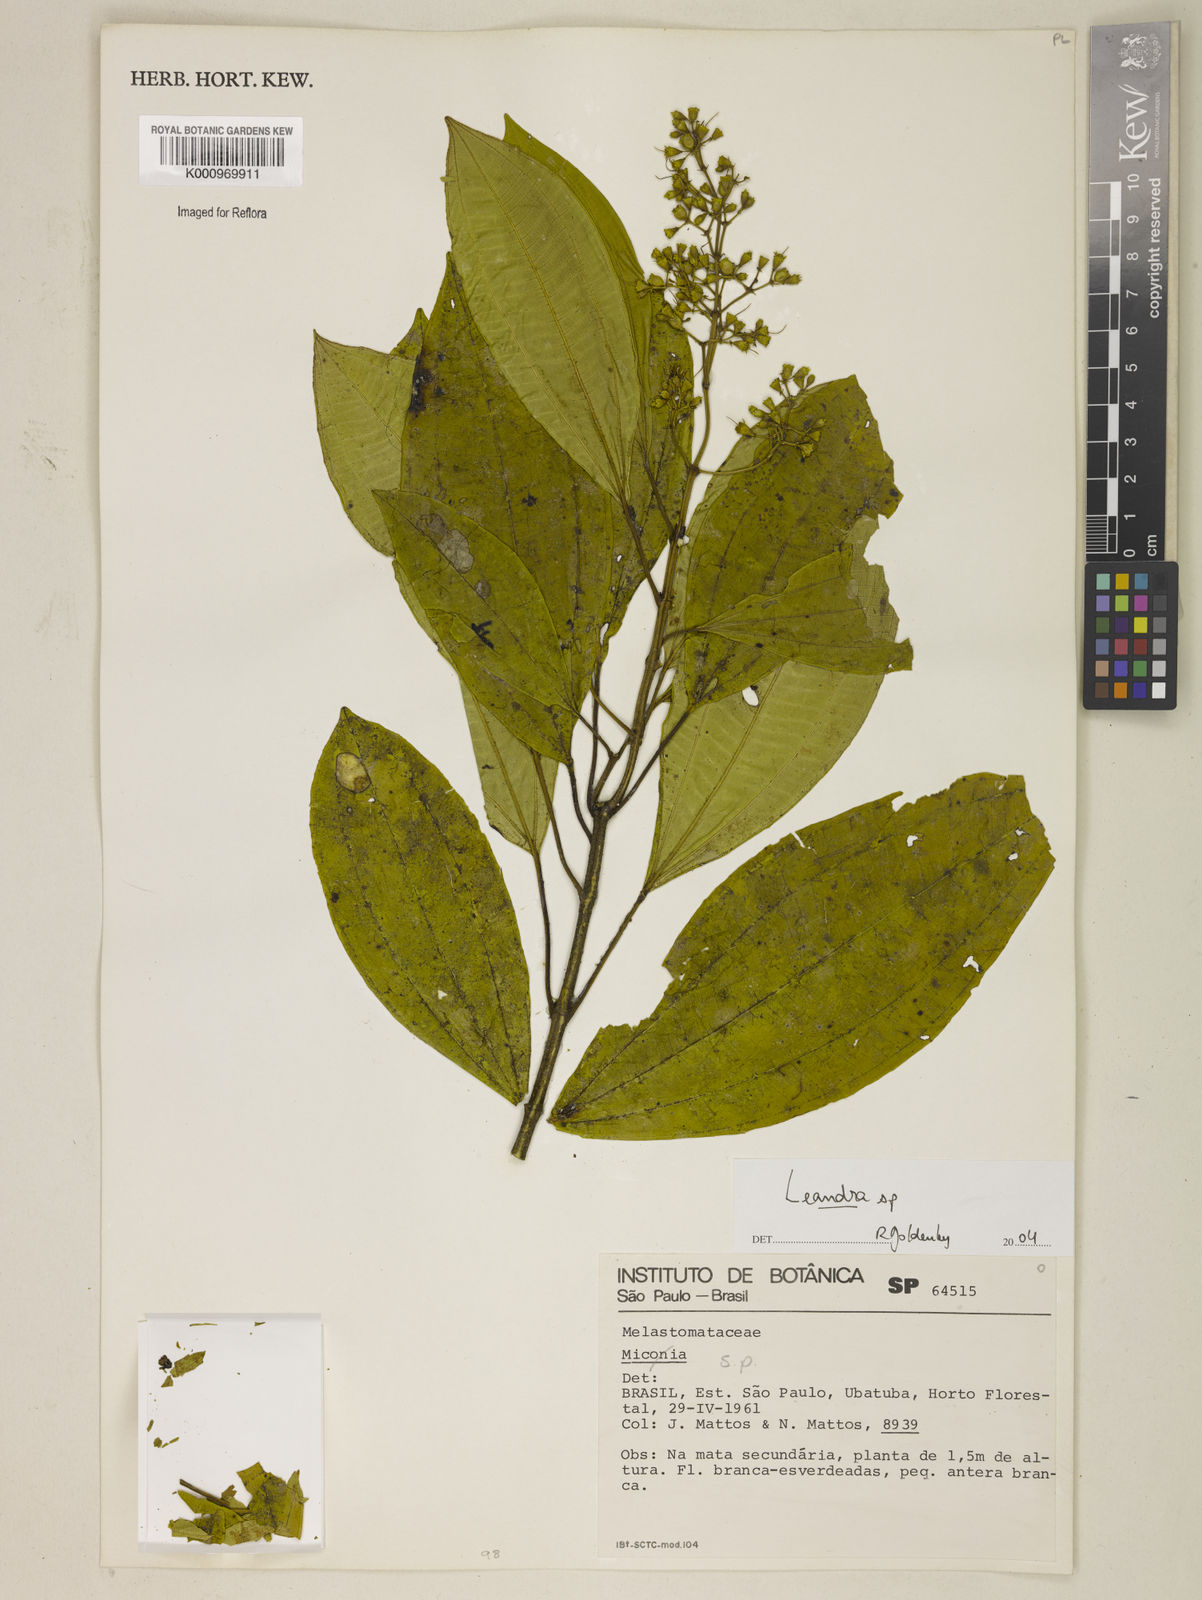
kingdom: Plantae
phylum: Tracheophyta
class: Magnoliopsida
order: Myrtales
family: Melastomataceae
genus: Miconia
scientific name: Miconia
